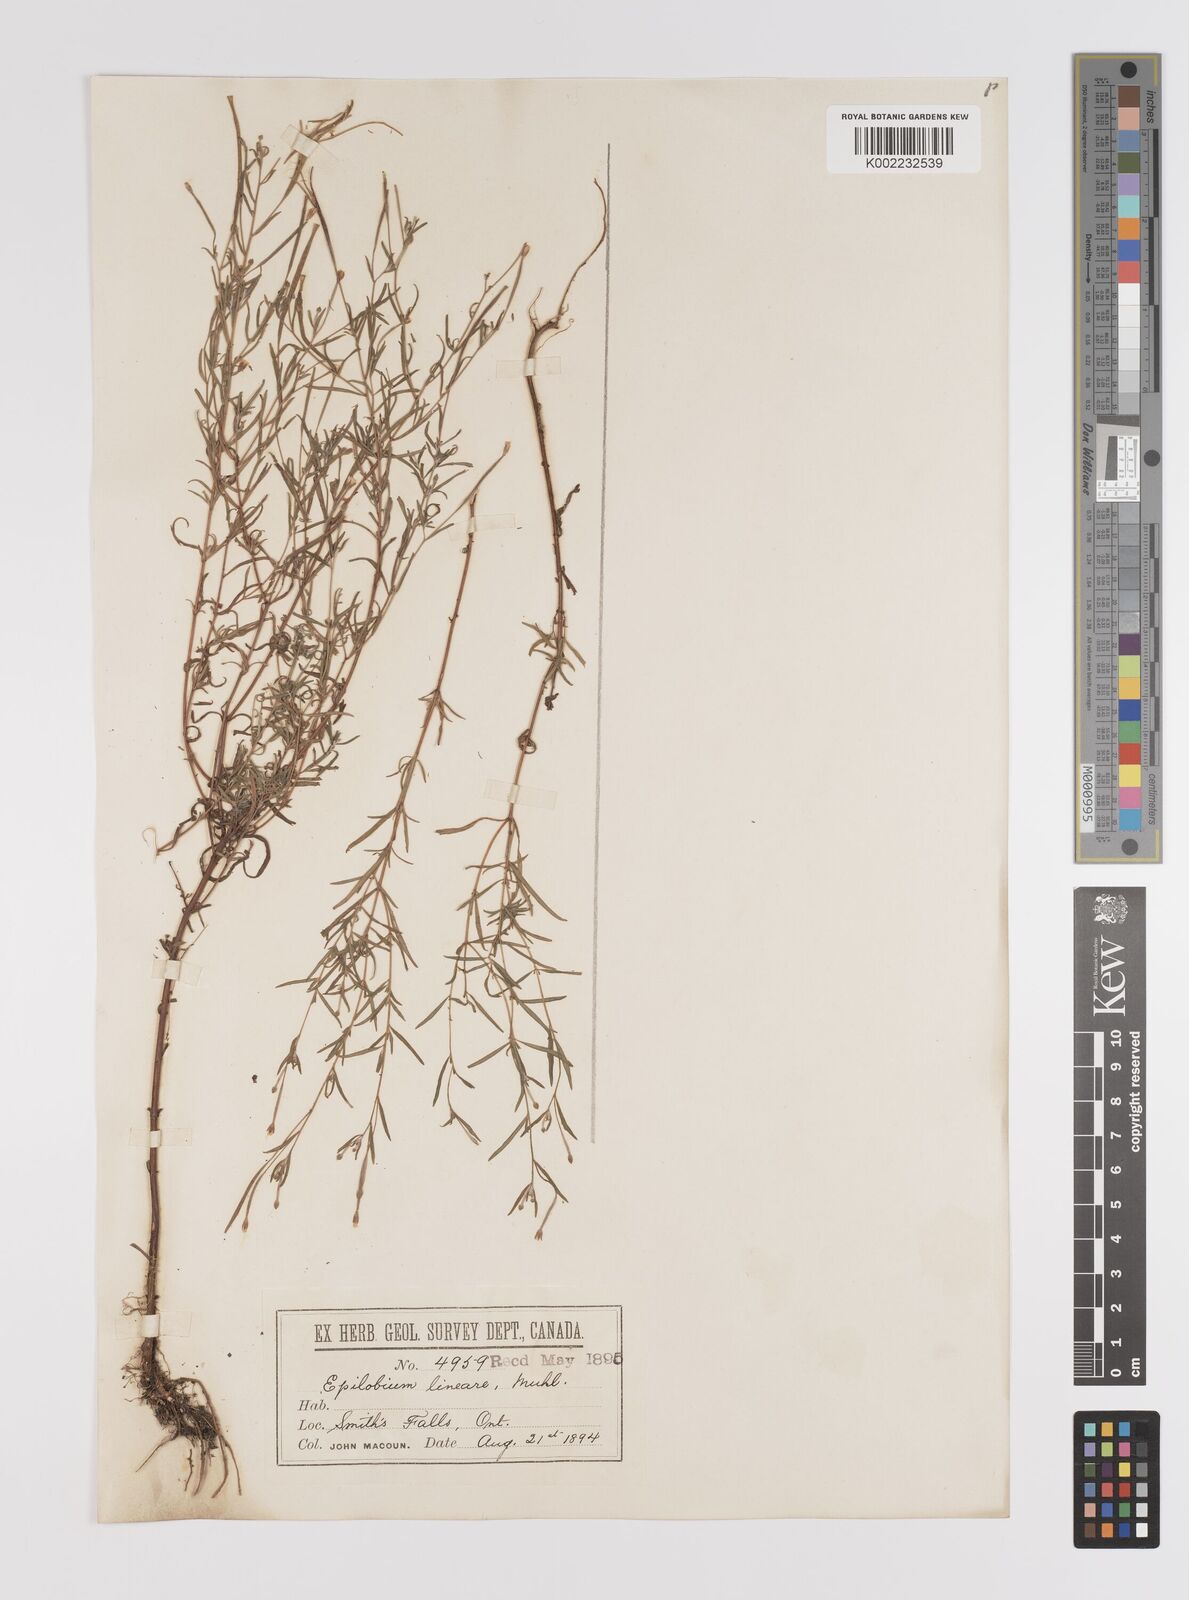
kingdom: Plantae
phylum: Tracheophyta
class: Magnoliopsida
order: Myrtales
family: Onagraceae
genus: Epilobium
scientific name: Epilobium palustre
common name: Marsh willowherb
